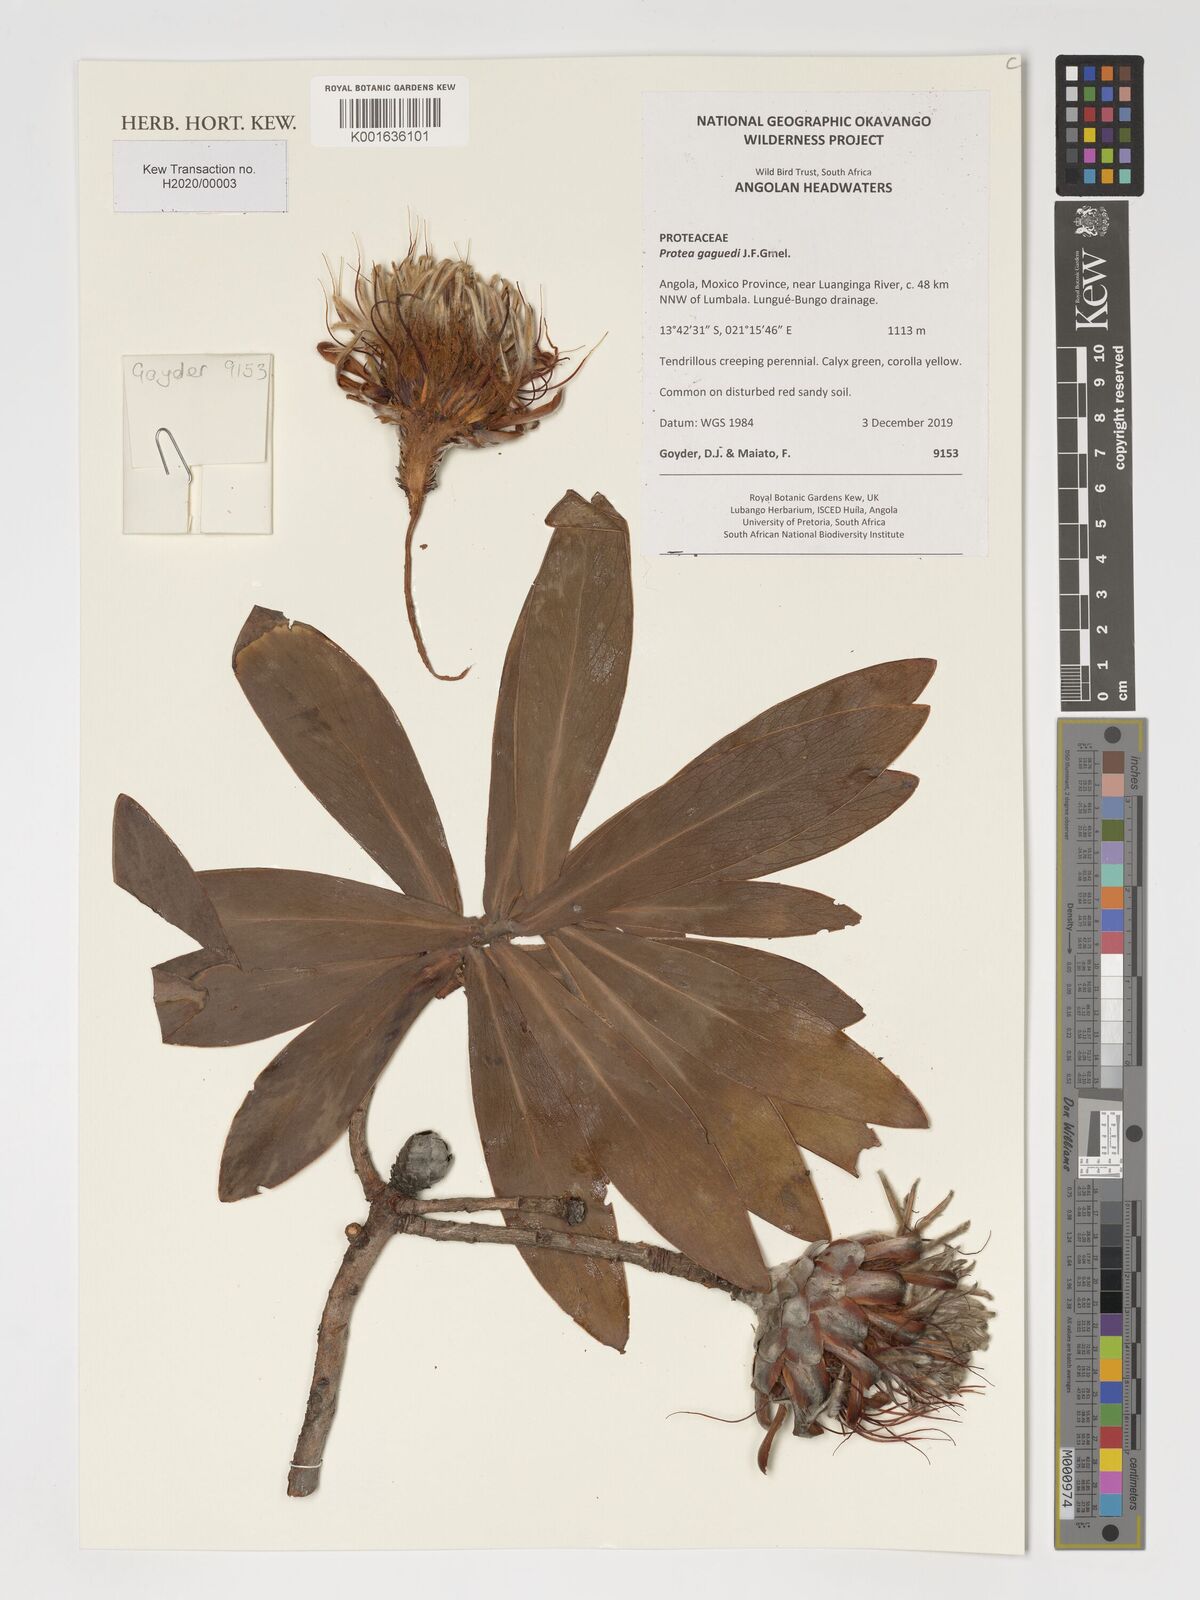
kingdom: Plantae
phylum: Tracheophyta
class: Magnoliopsida
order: Proteales
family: Proteaceae
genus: Protea
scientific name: Protea gaguedi
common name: African protea
